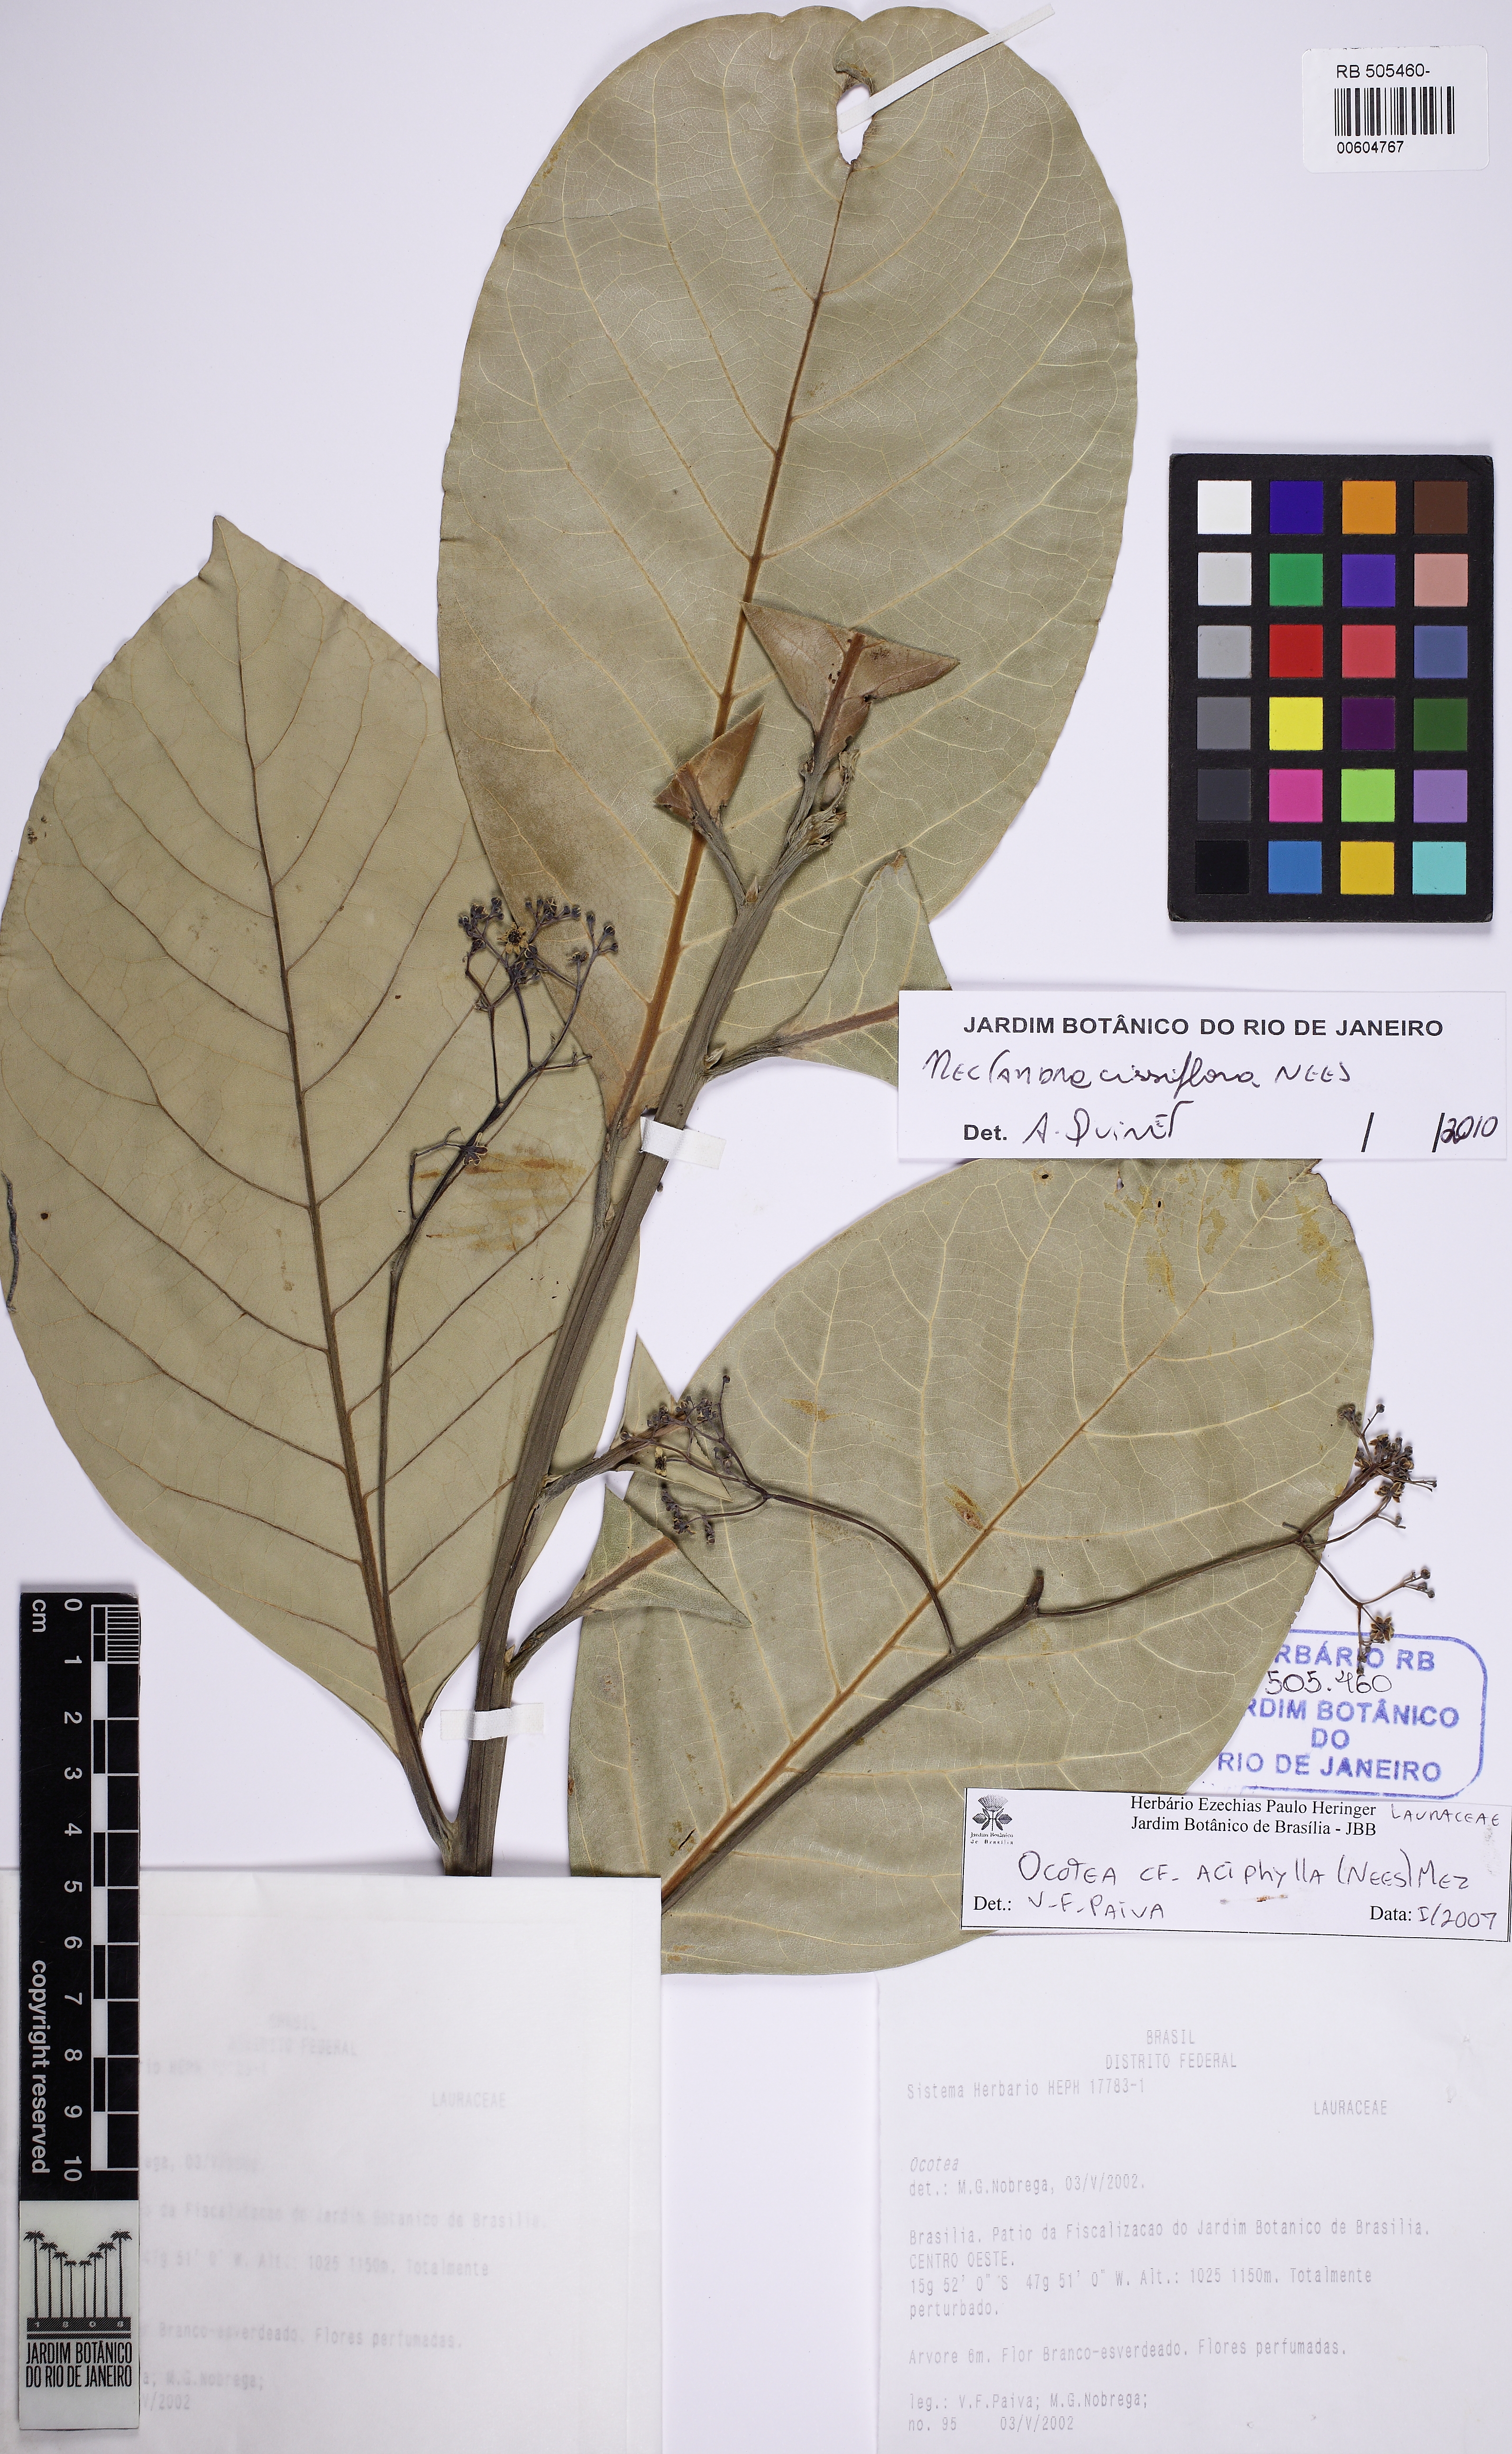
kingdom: Plantae
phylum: Tracheophyta
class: Magnoliopsida
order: Laurales
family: Lauraceae
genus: Nectandra
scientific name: Nectandra cissiflora
